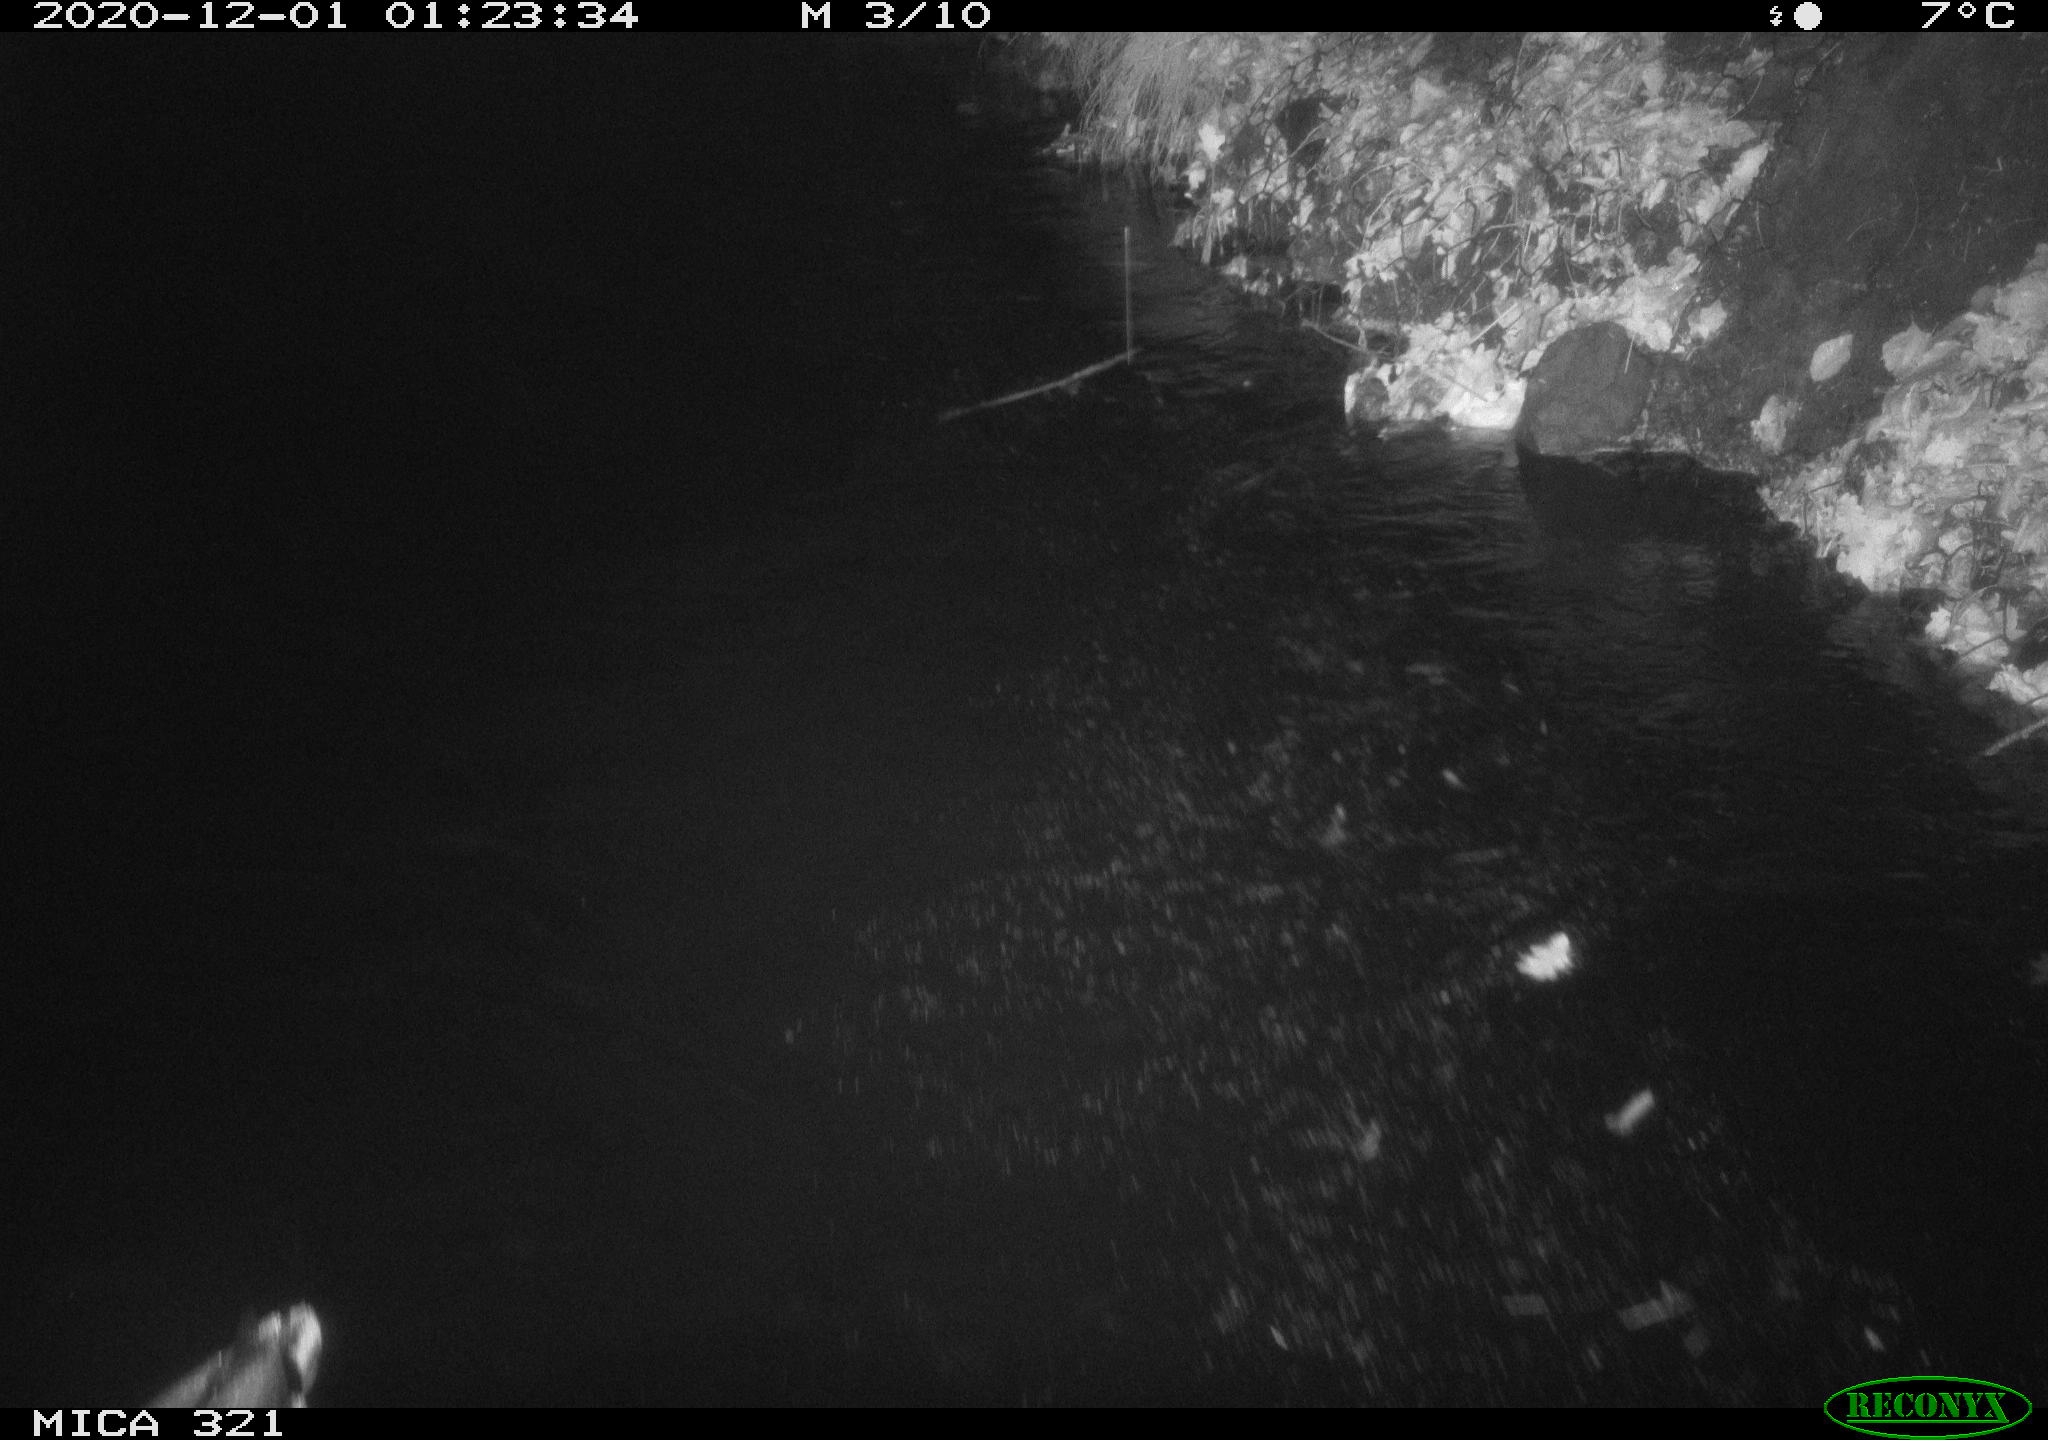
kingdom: Animalia
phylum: Chordata
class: Aves
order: Anseriformes
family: Anatidae
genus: Anas
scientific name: Anas platyrhynchos
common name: Mallard
